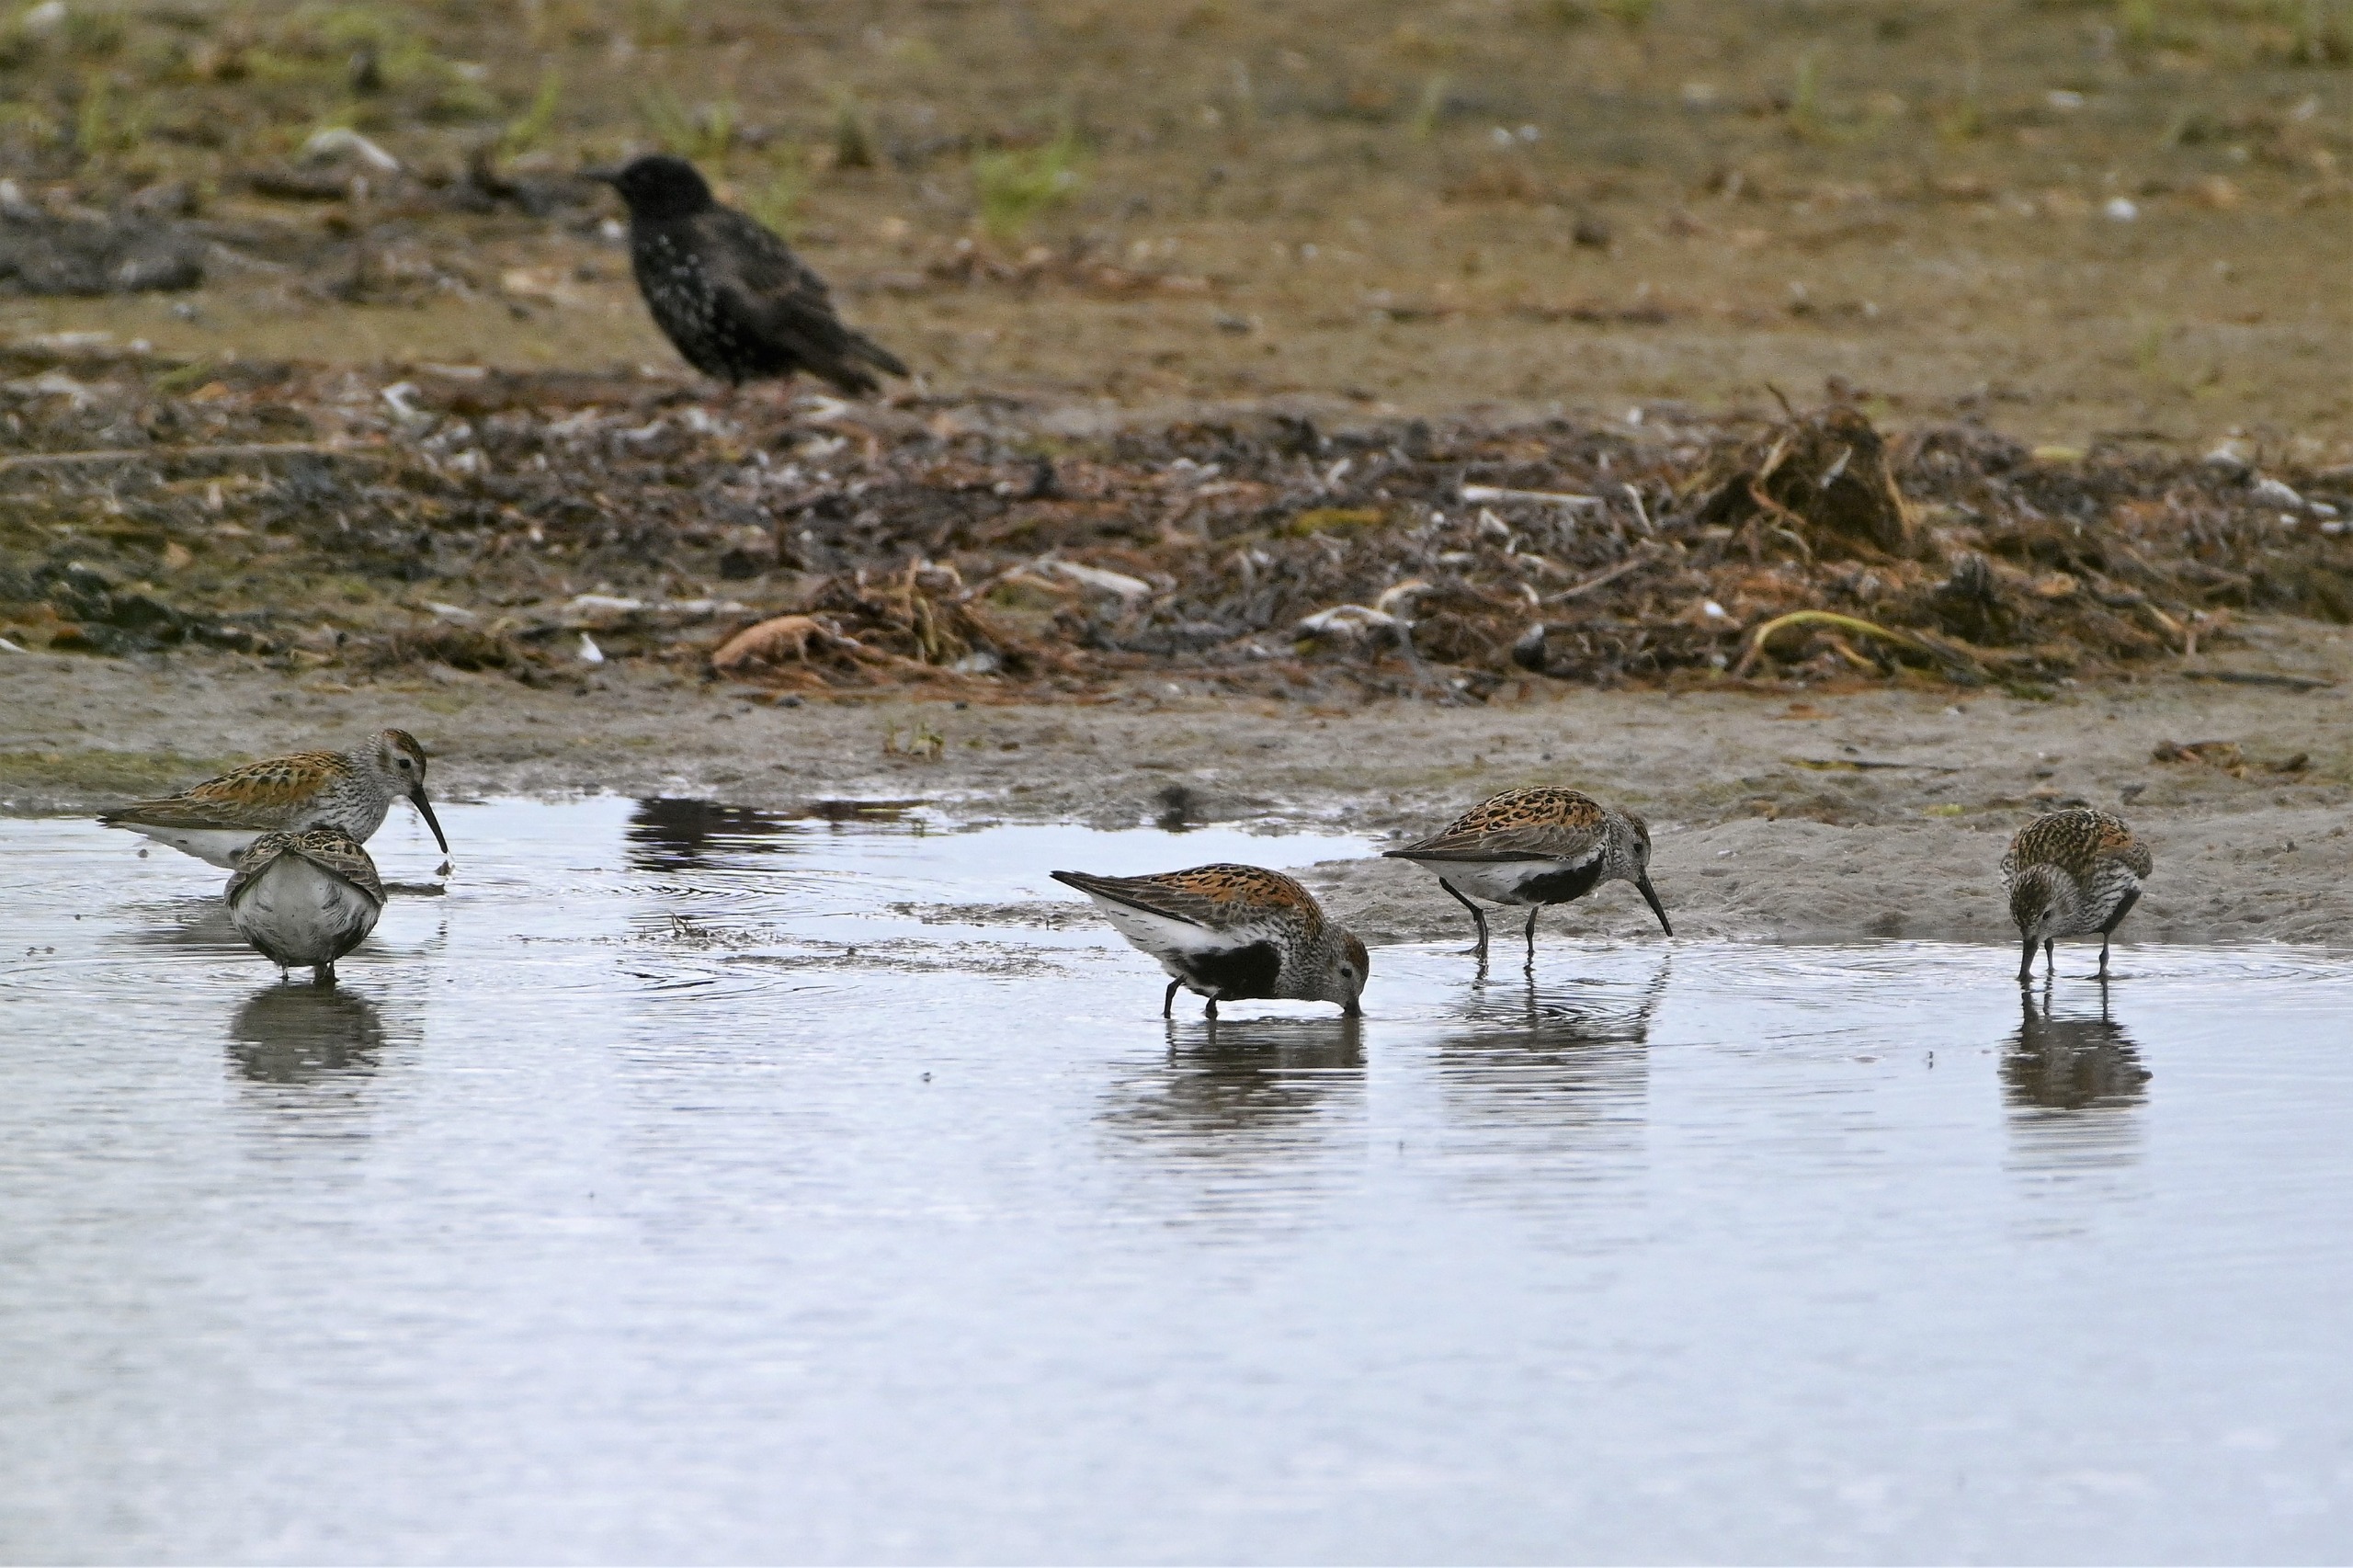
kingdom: Animalia
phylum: Chordata
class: Aves
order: Charadriiformes
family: Scolopacidae
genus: Calidris
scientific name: Calidris alpina
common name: Almindelig ryle
